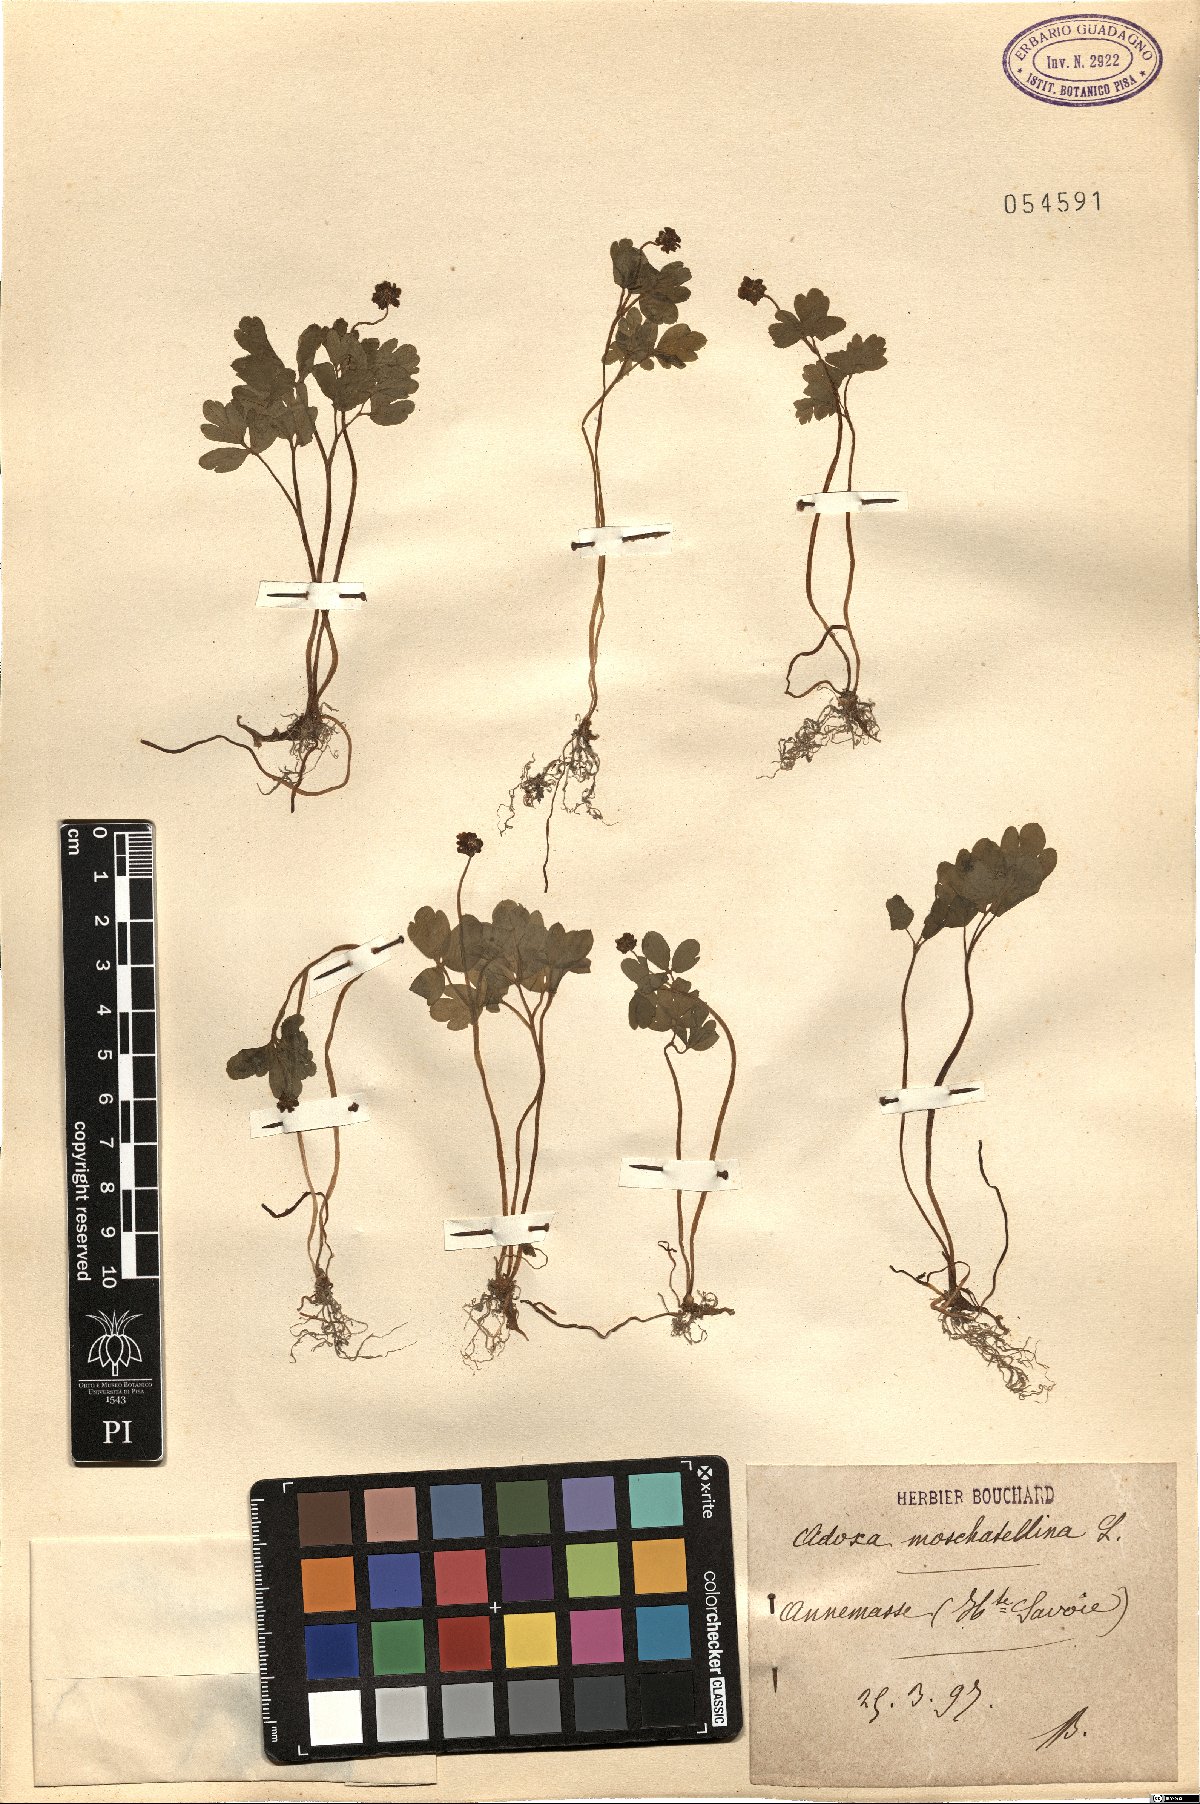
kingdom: Plantae
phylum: Tracheophyta
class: Magnoliopsida
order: Dipsacales
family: Viburnaceae
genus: Adoxa
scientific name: Adoxa moschatellina
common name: Moschatel
